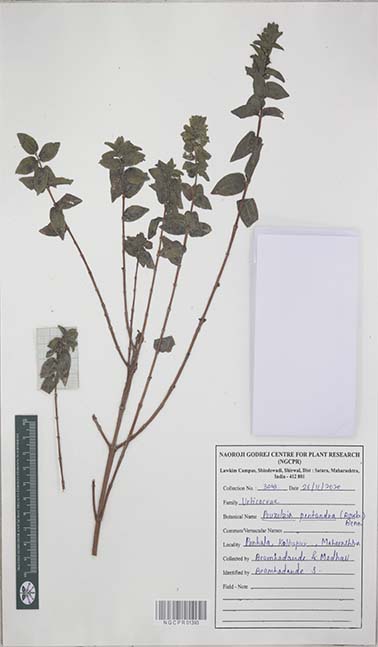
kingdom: Plantae
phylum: Tracheophyta
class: Magnoliopsida
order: Rosales
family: Urticaceae
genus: Gonostegia
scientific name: Gonostegia pentandra
